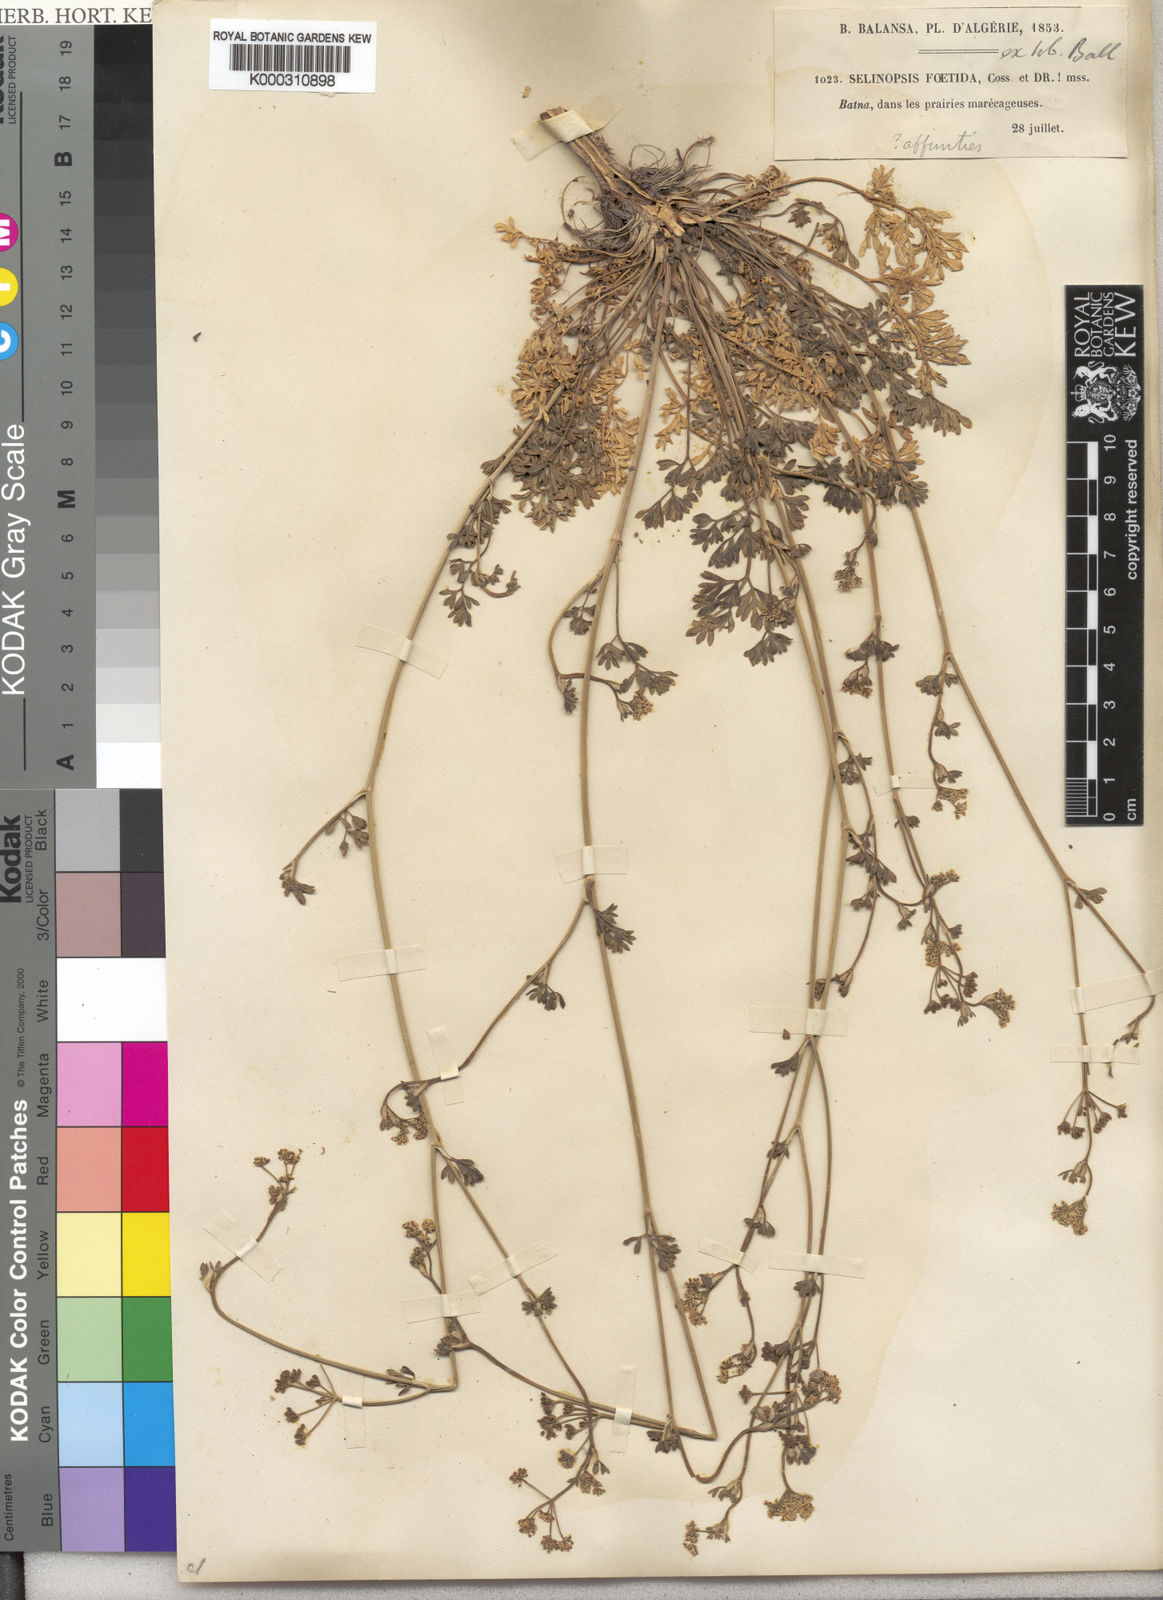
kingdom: Plantae
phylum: Tracheophyta
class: Magnoliopsida
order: Apiales
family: Apiaceae
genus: Carum
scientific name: Carum
